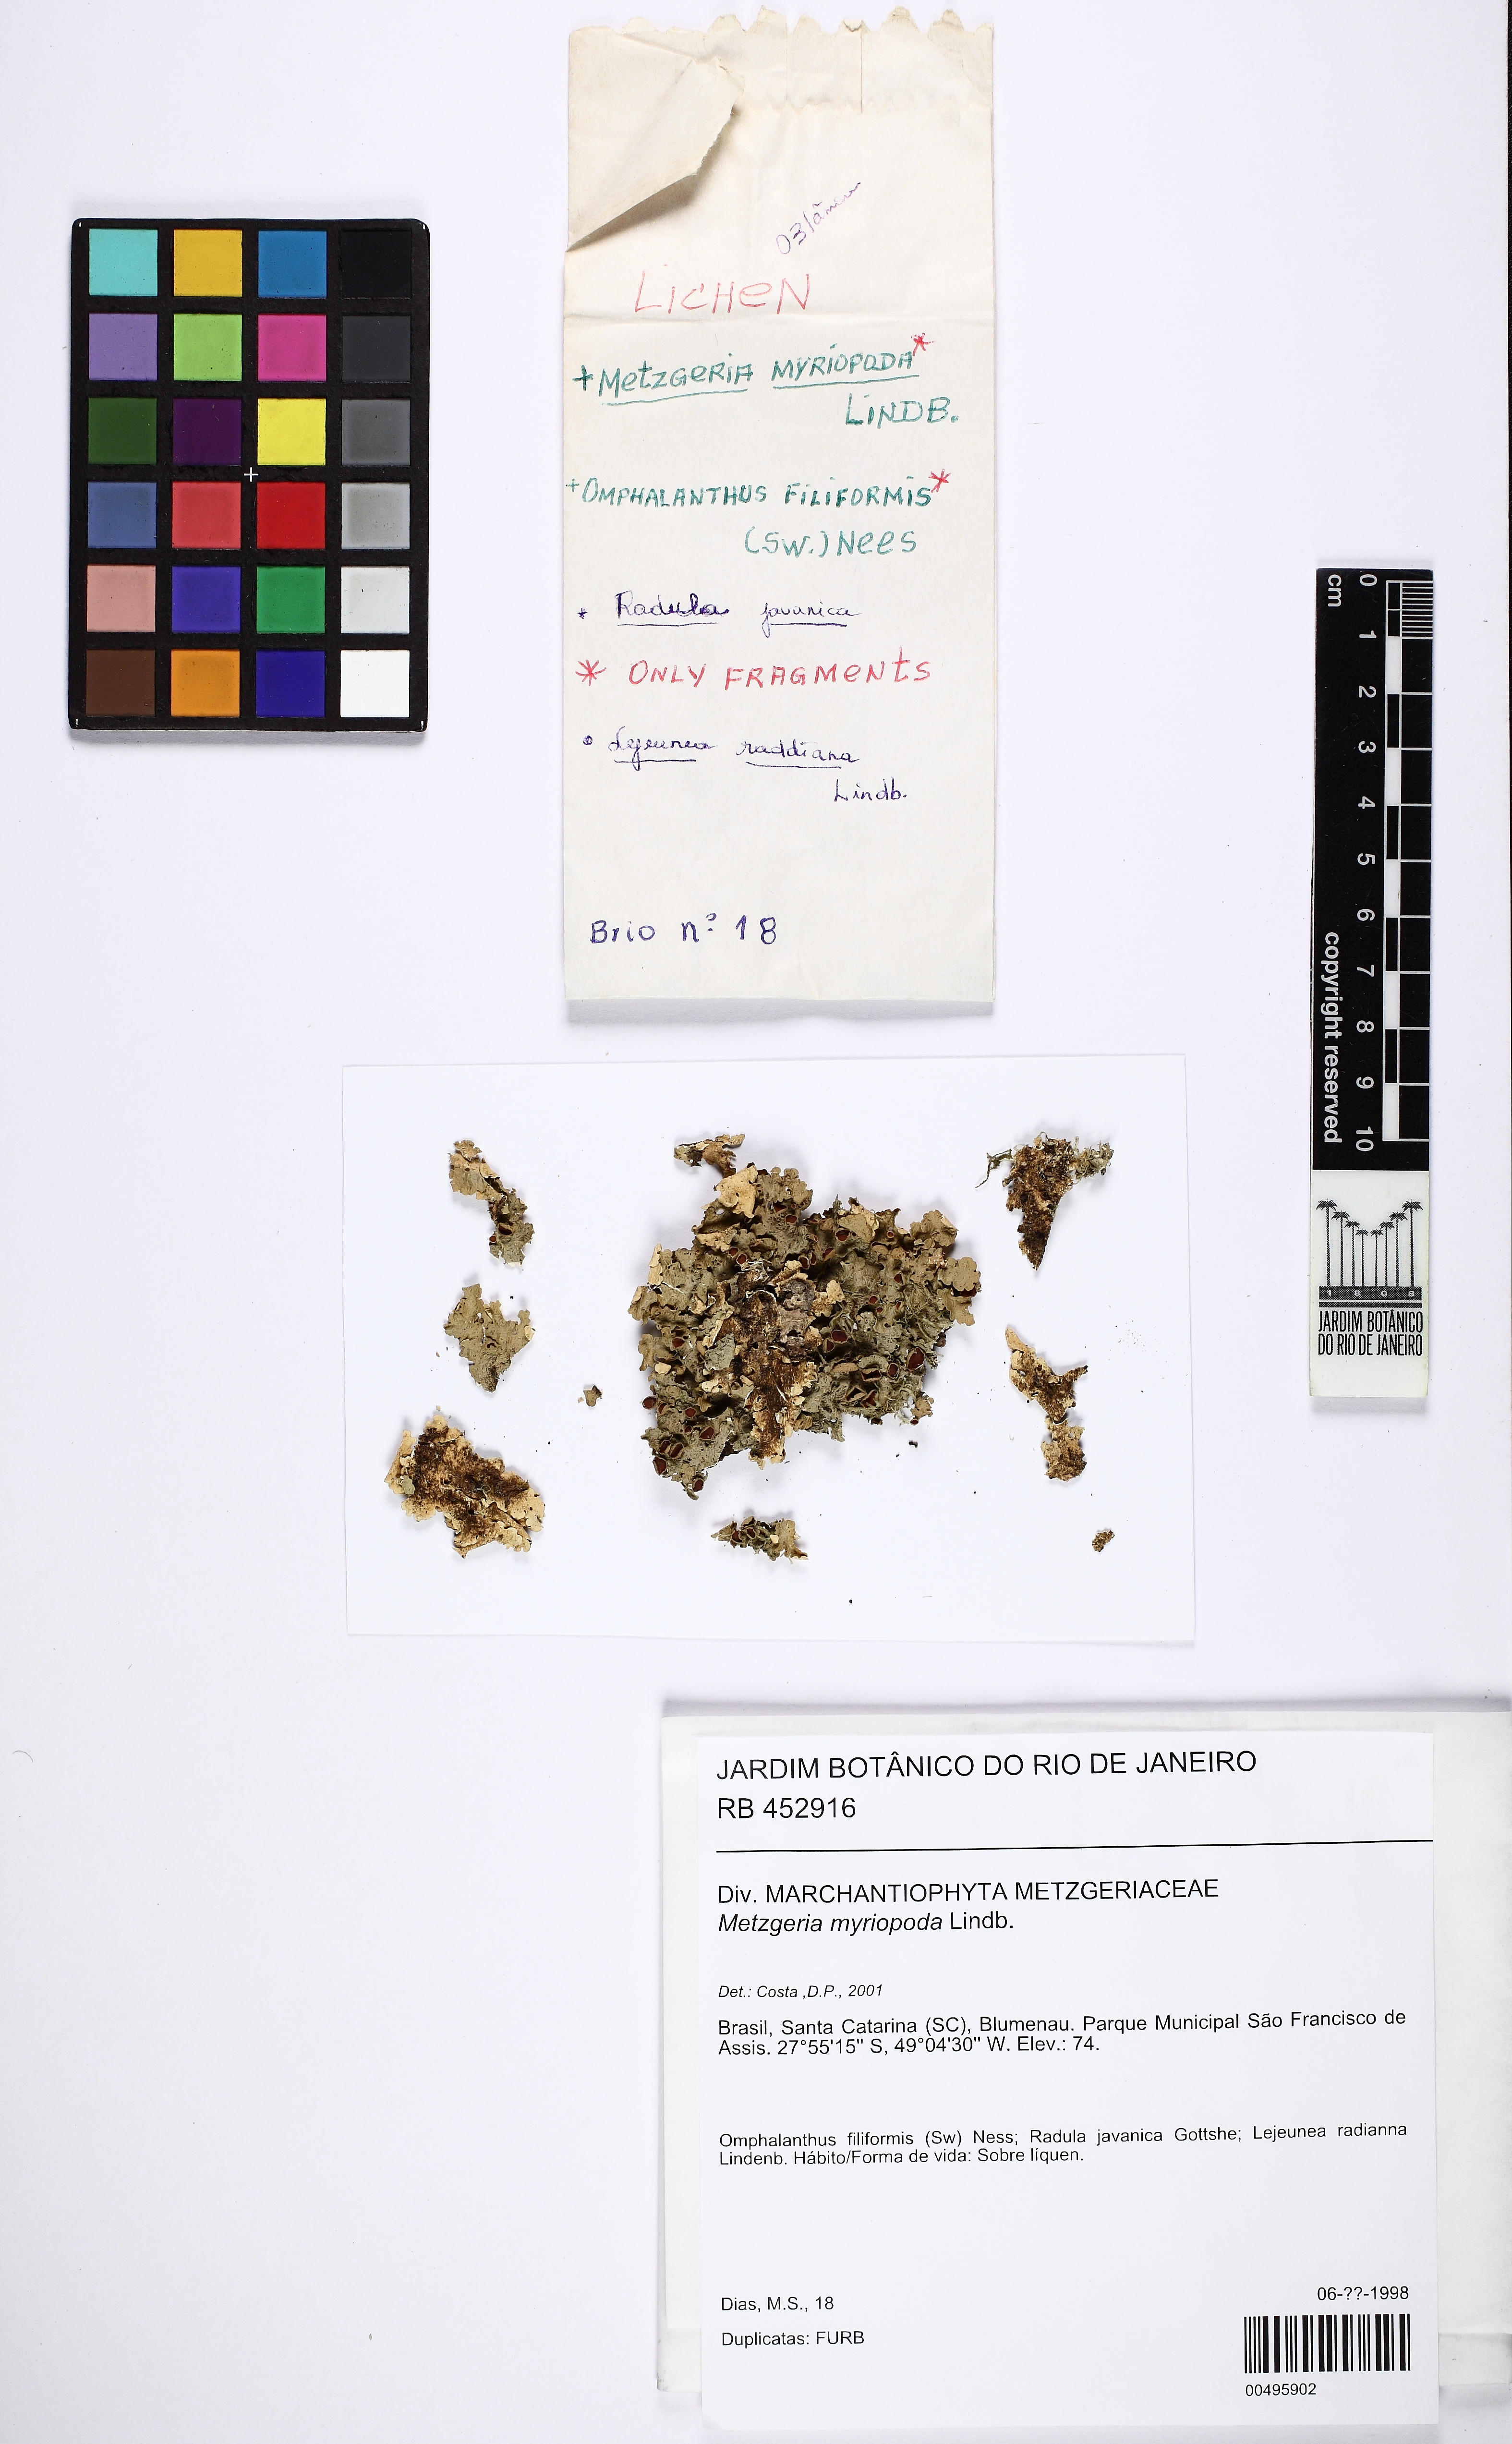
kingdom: Plantae
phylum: Marchantiophyta
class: Jungermanniopsida
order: Metzgeriales
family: Metzgeriaceae
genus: Metzgeria
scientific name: Metzgeria myriopoda
